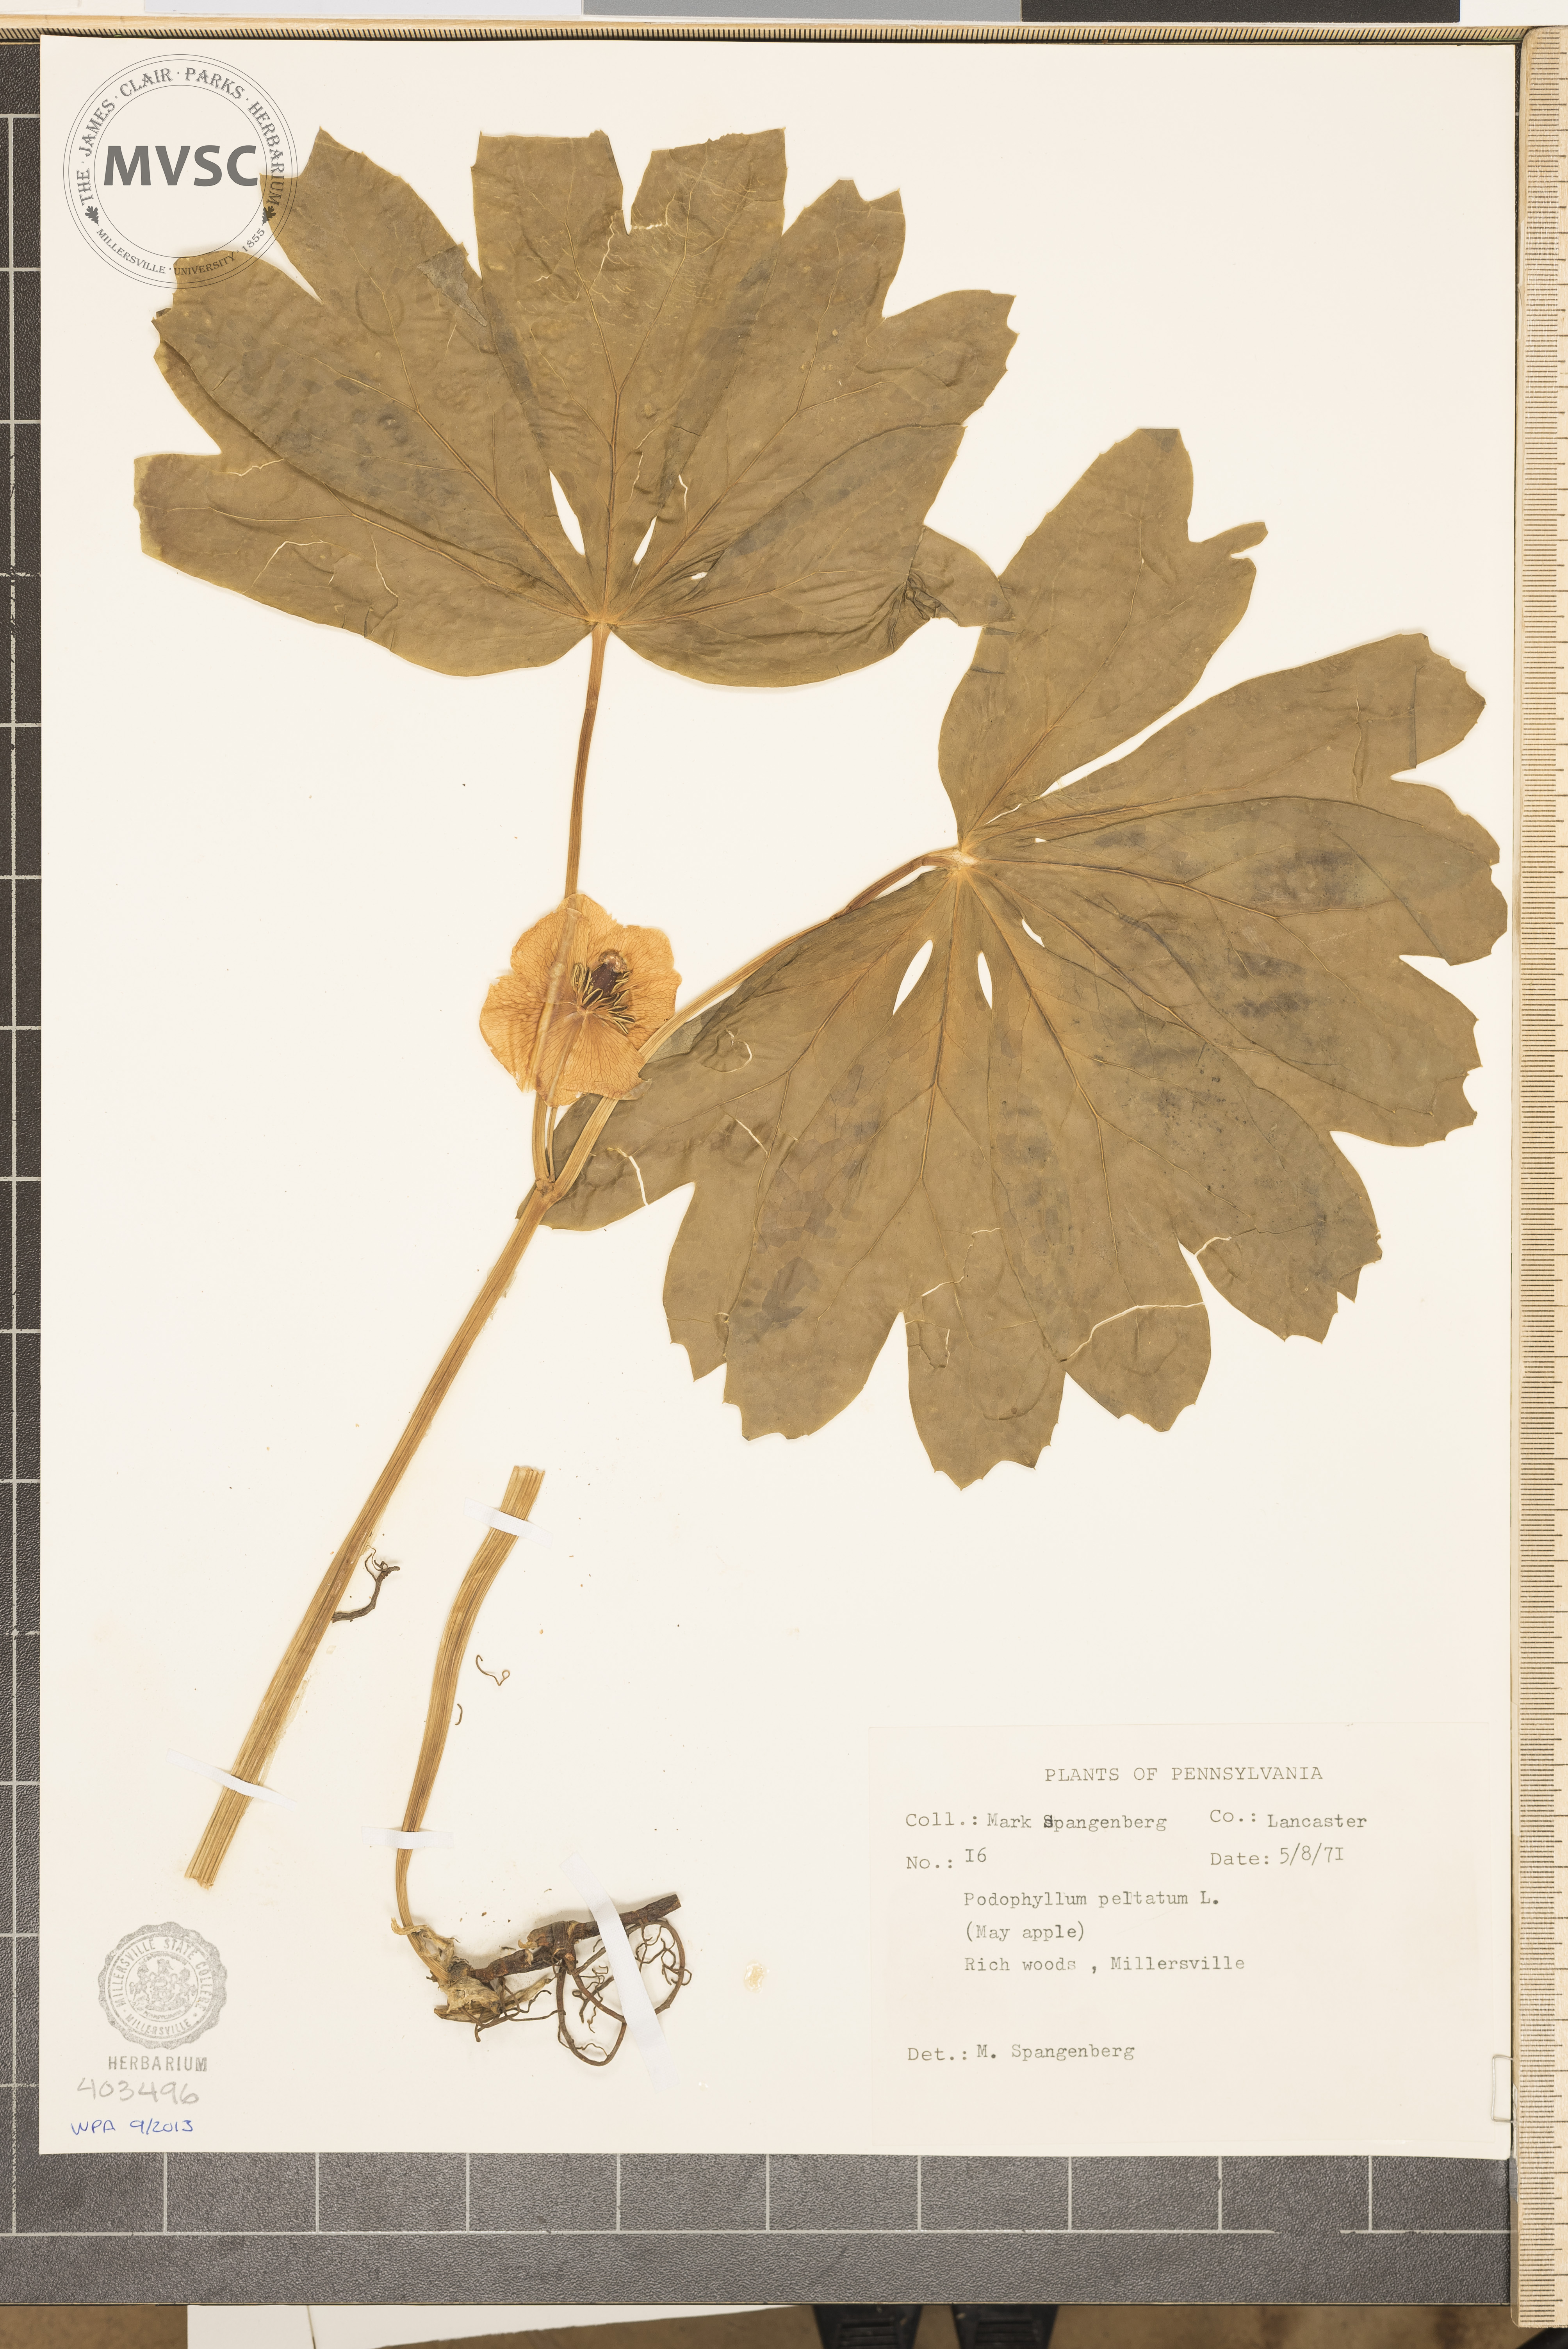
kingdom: Plantae
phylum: Tracheophyta
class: Magnoliopsida
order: Ranunculales
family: Berberidaceae
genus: Podophyllum
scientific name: Podophyllum peltatum
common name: May-Apple
